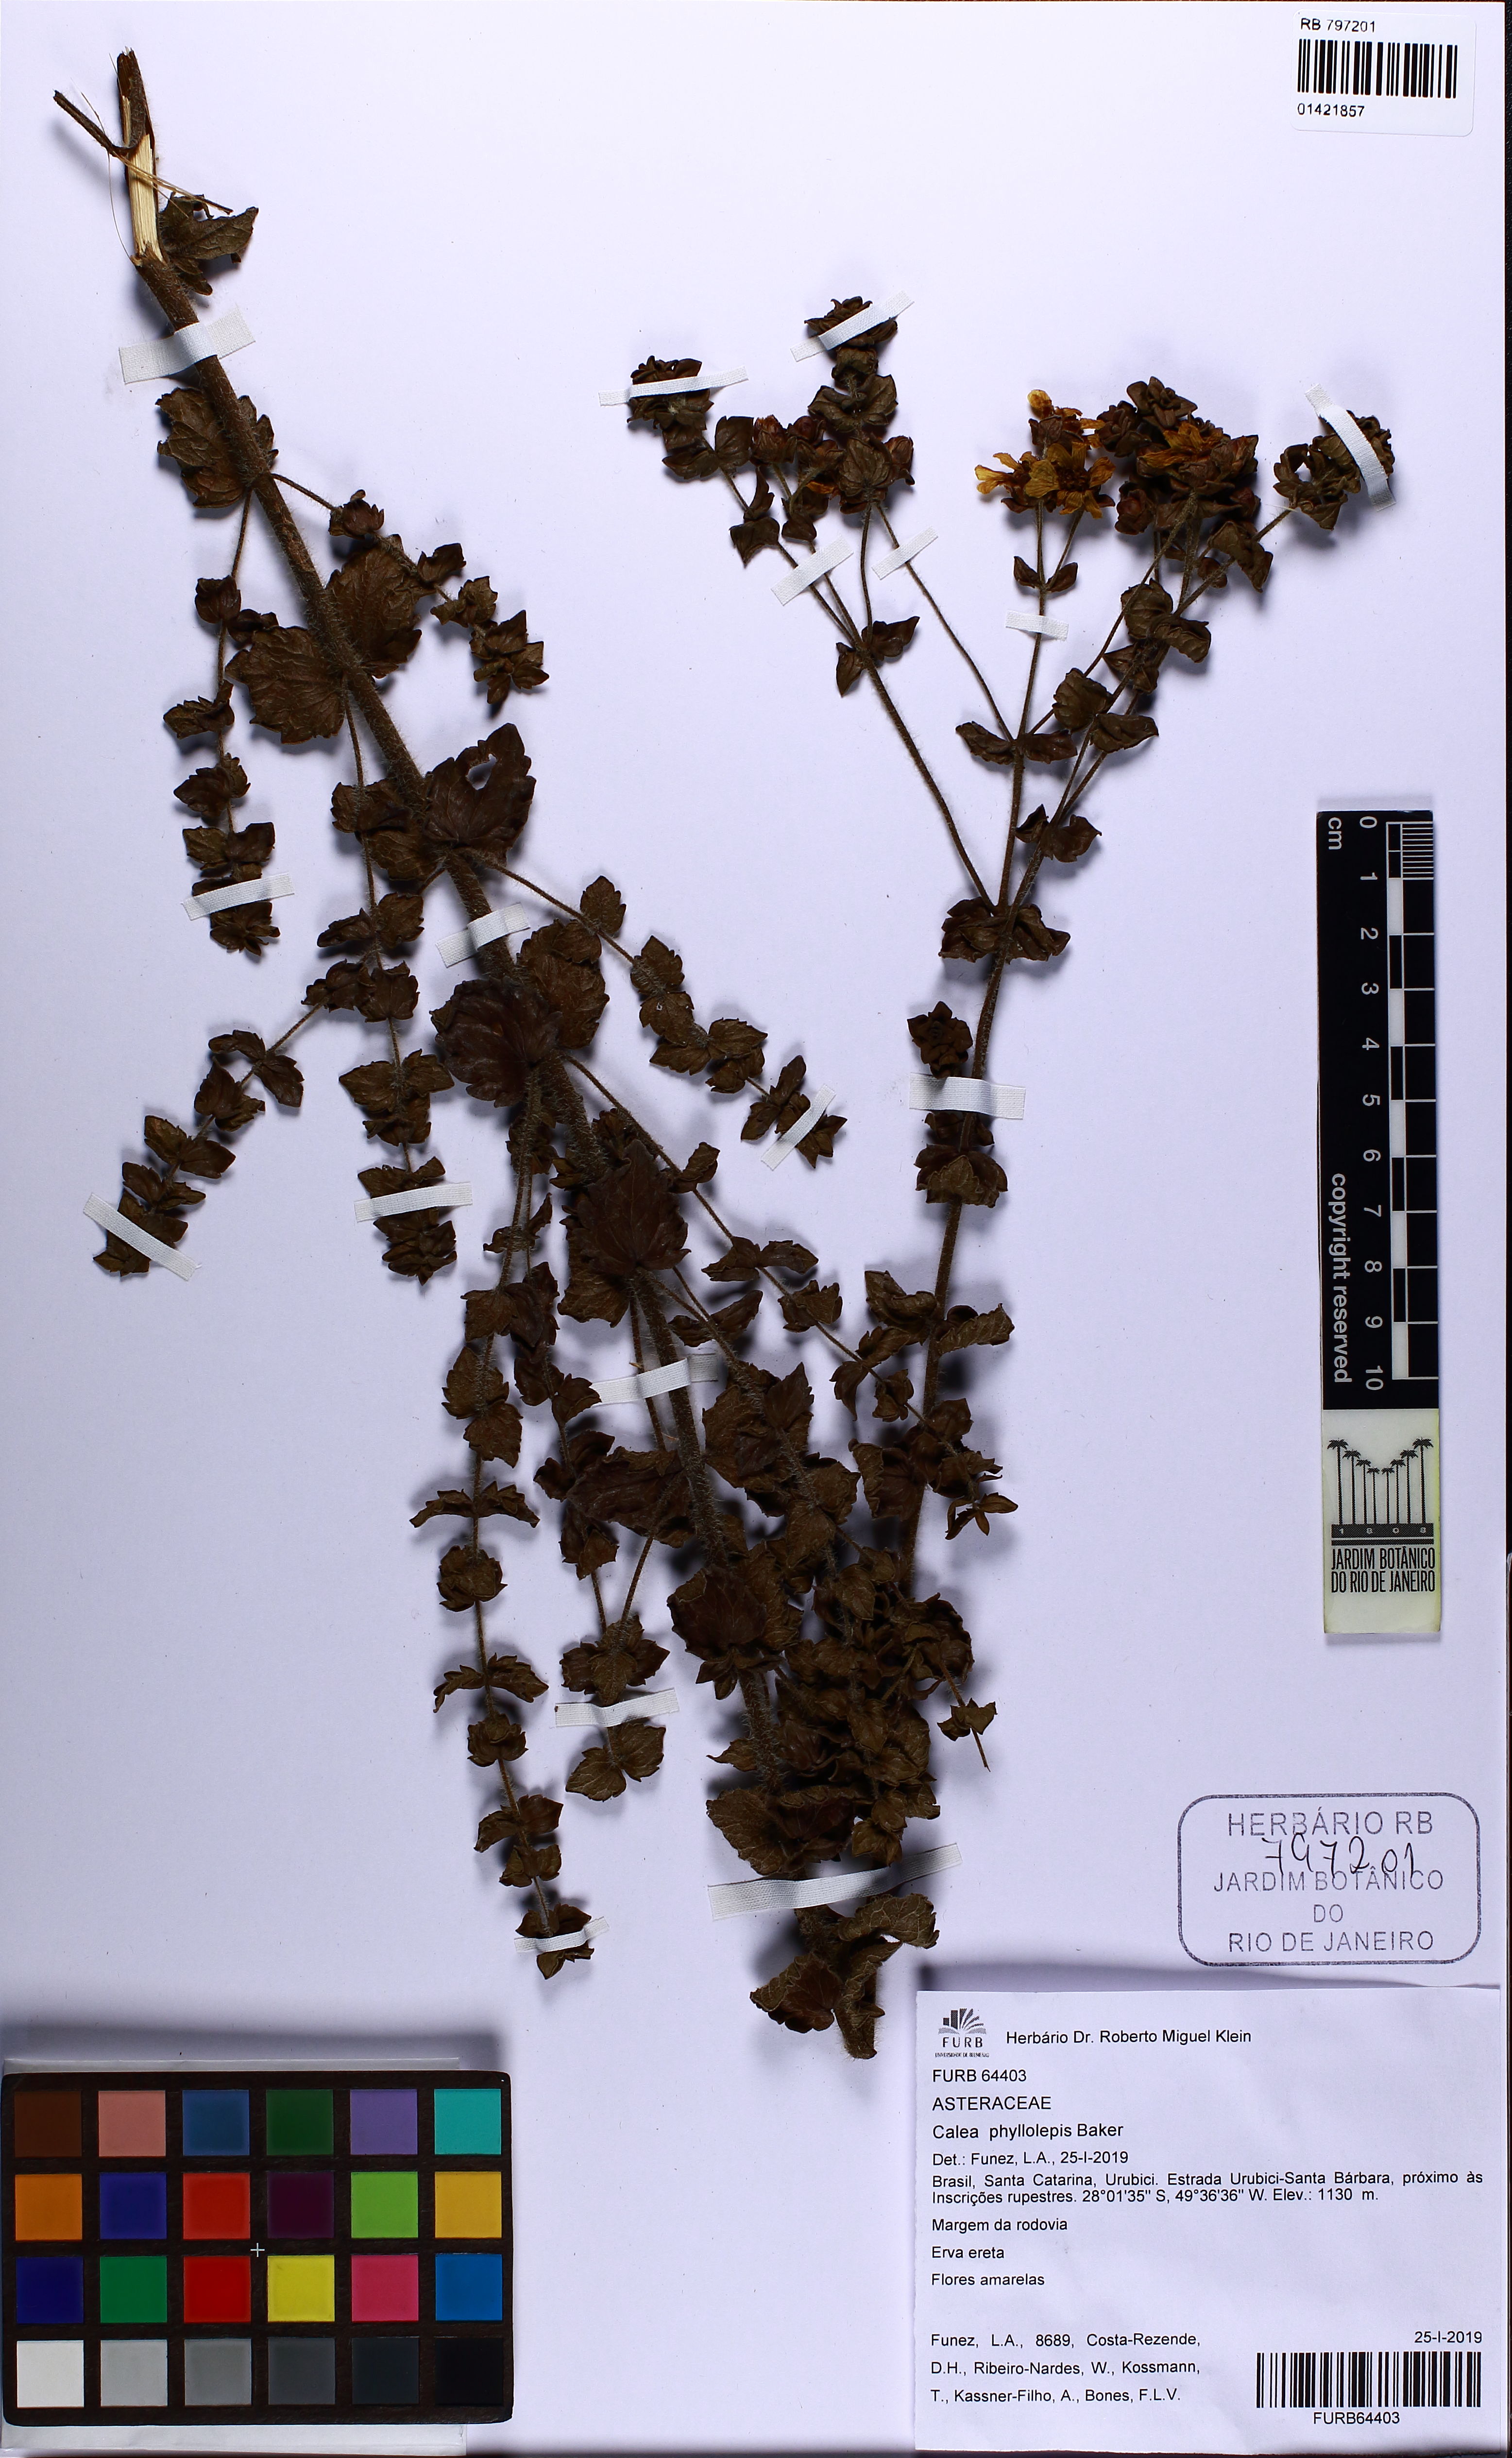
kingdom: Plantae
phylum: Tracheophyta
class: Magnoliopsida
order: Asterales
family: Asteraceae
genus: Calea
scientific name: Calea phyllolepis
